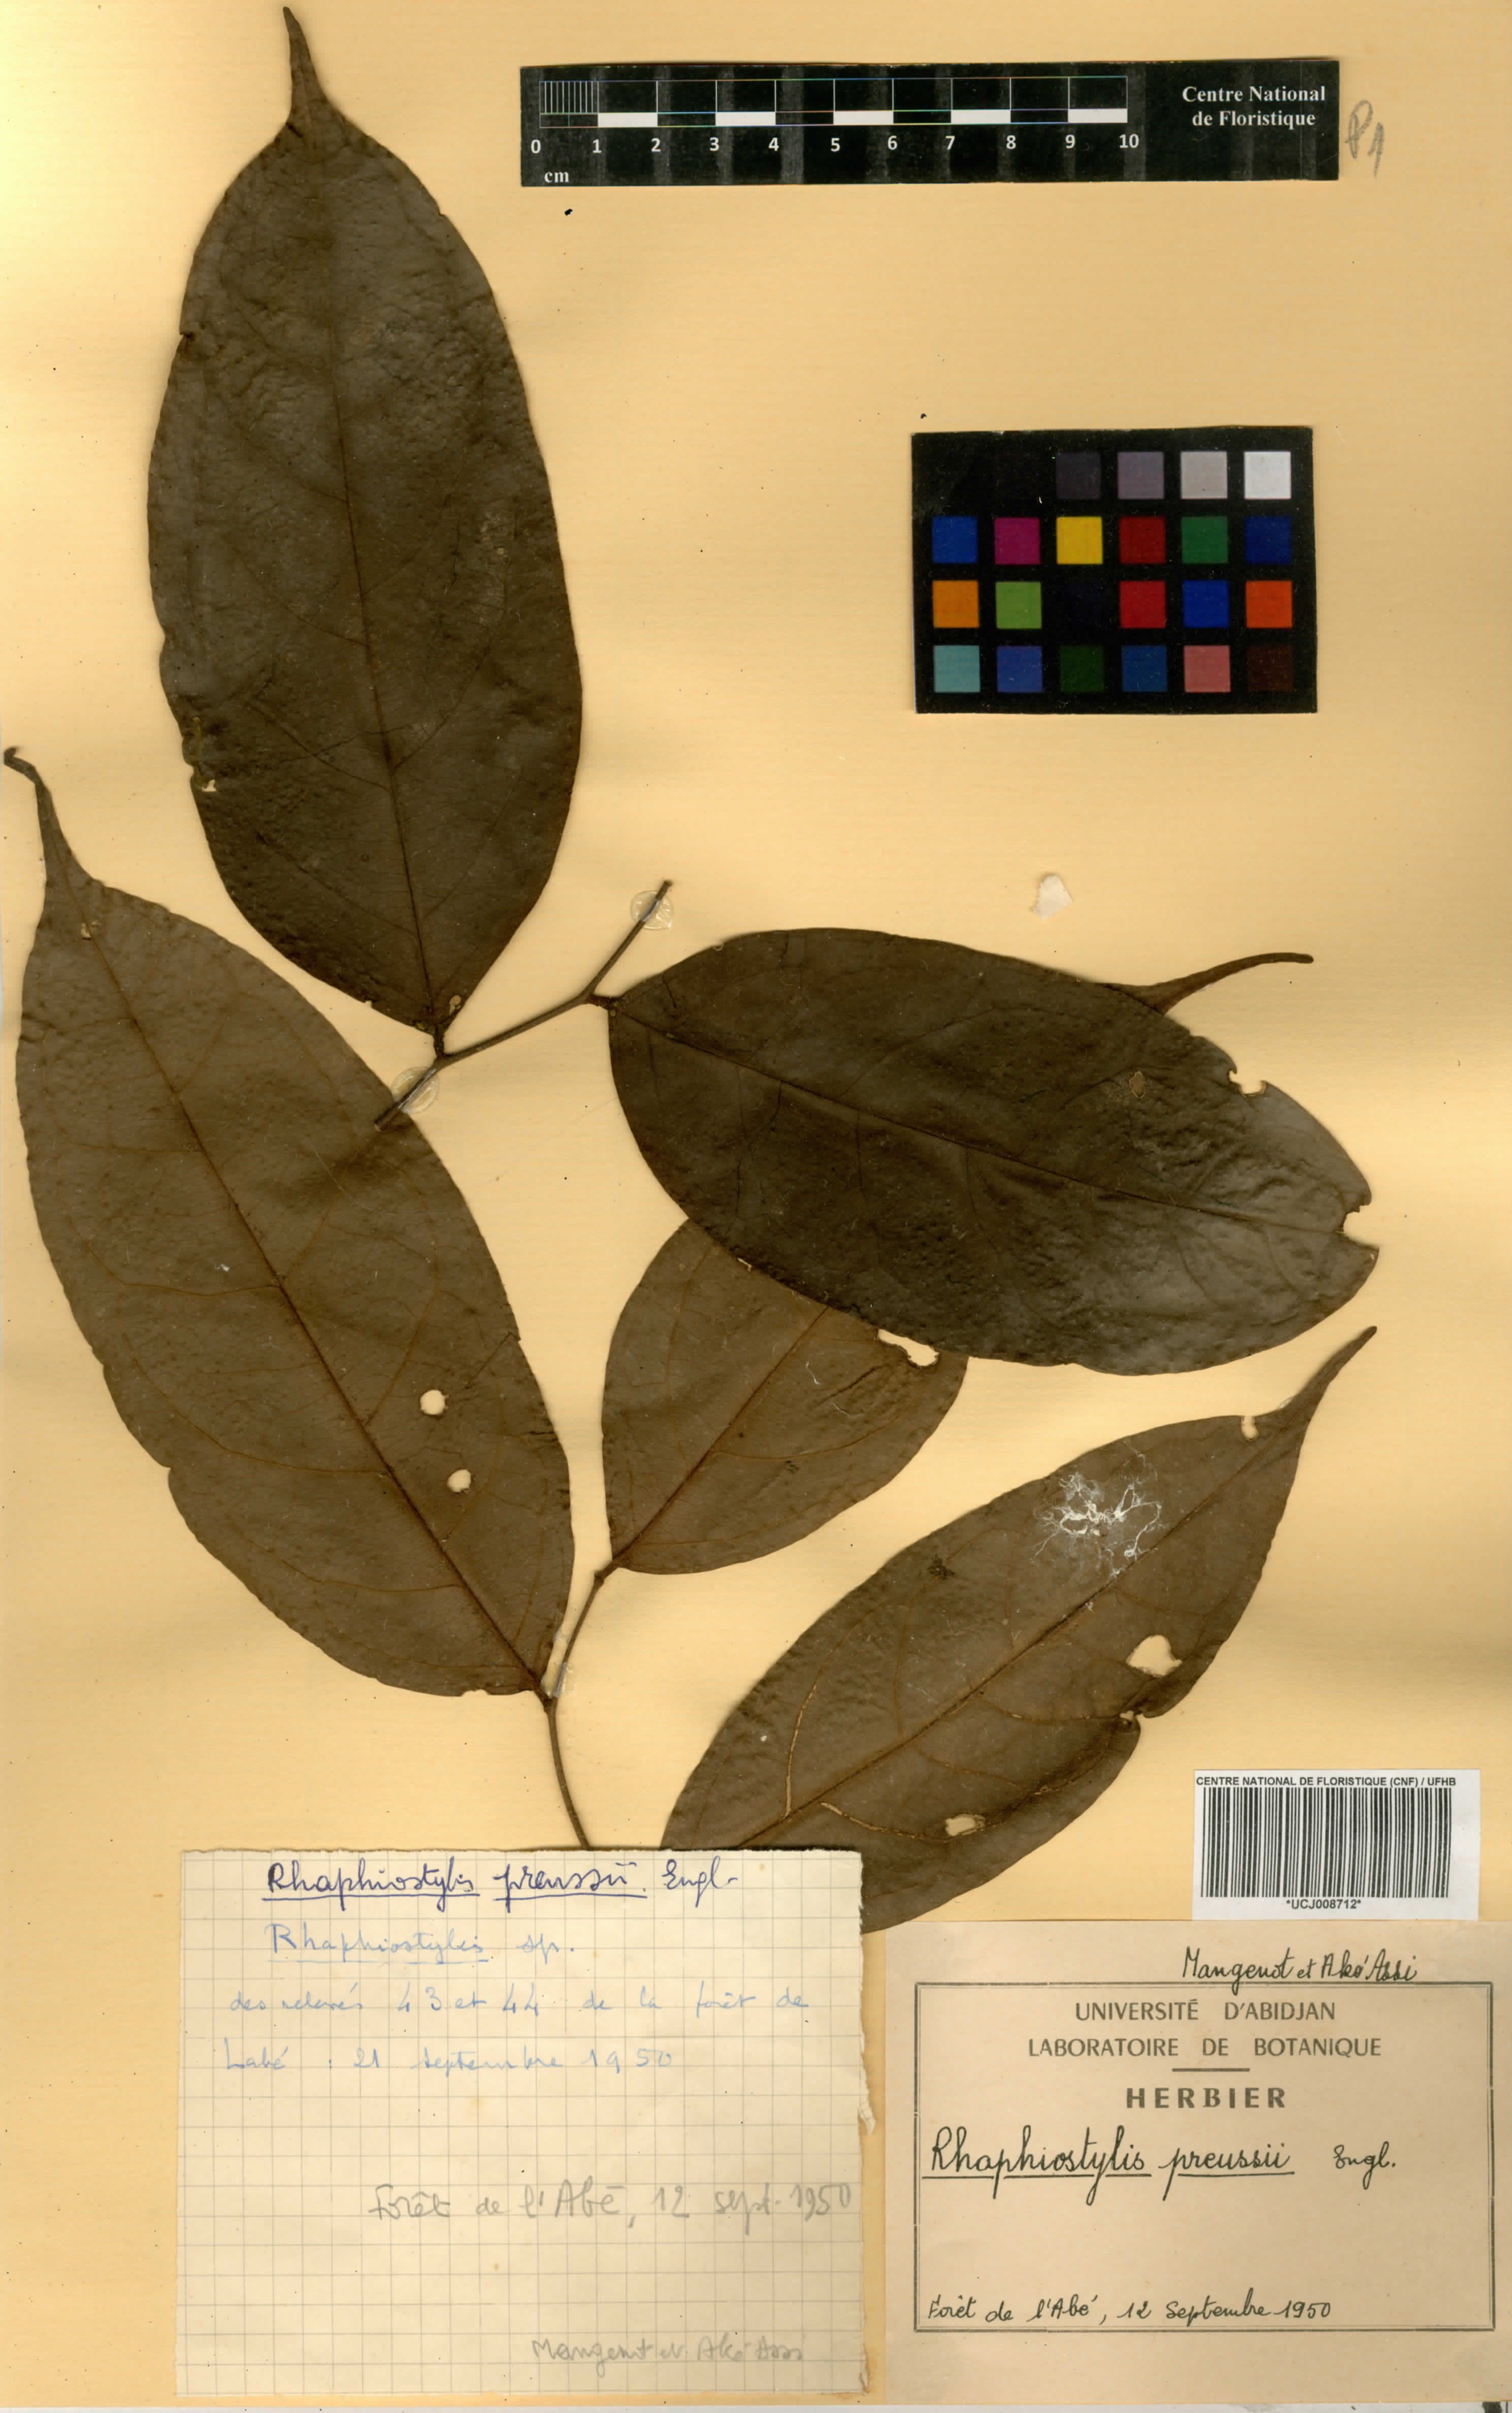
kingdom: Plantae
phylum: Tracheophyta
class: Magnoliopsida
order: Metteniusales
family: Metteniusaceae
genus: Rhaphiostylis
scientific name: Rhaphiostylis preussii
